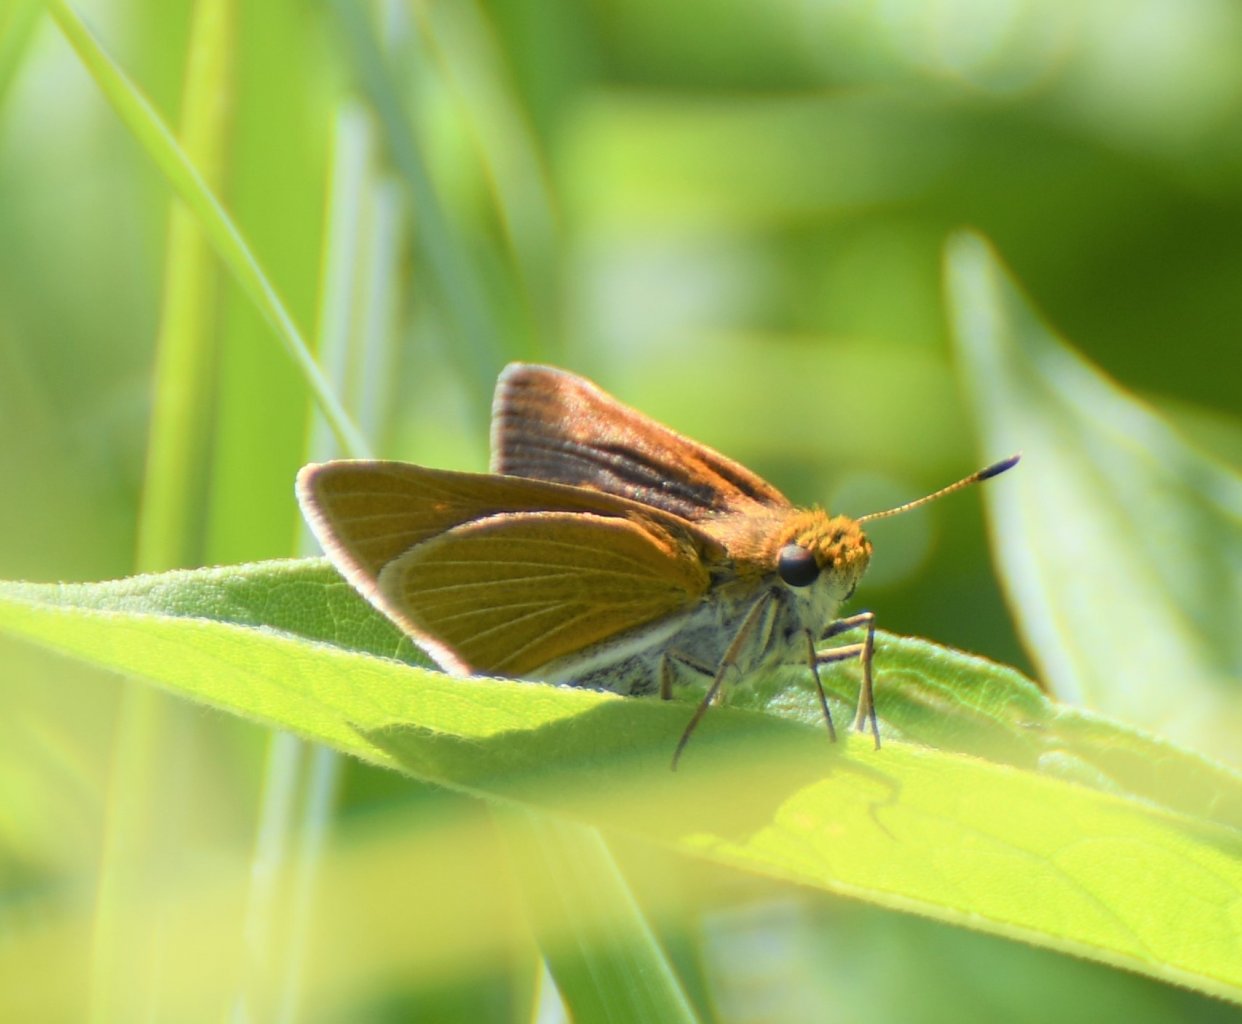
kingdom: Animalia
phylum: Arthropoda
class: Insecta
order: Lepidoptera
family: Hesperiidae
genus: Euphyes
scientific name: Euphyes bimacula
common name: Two-spotted Skipper
